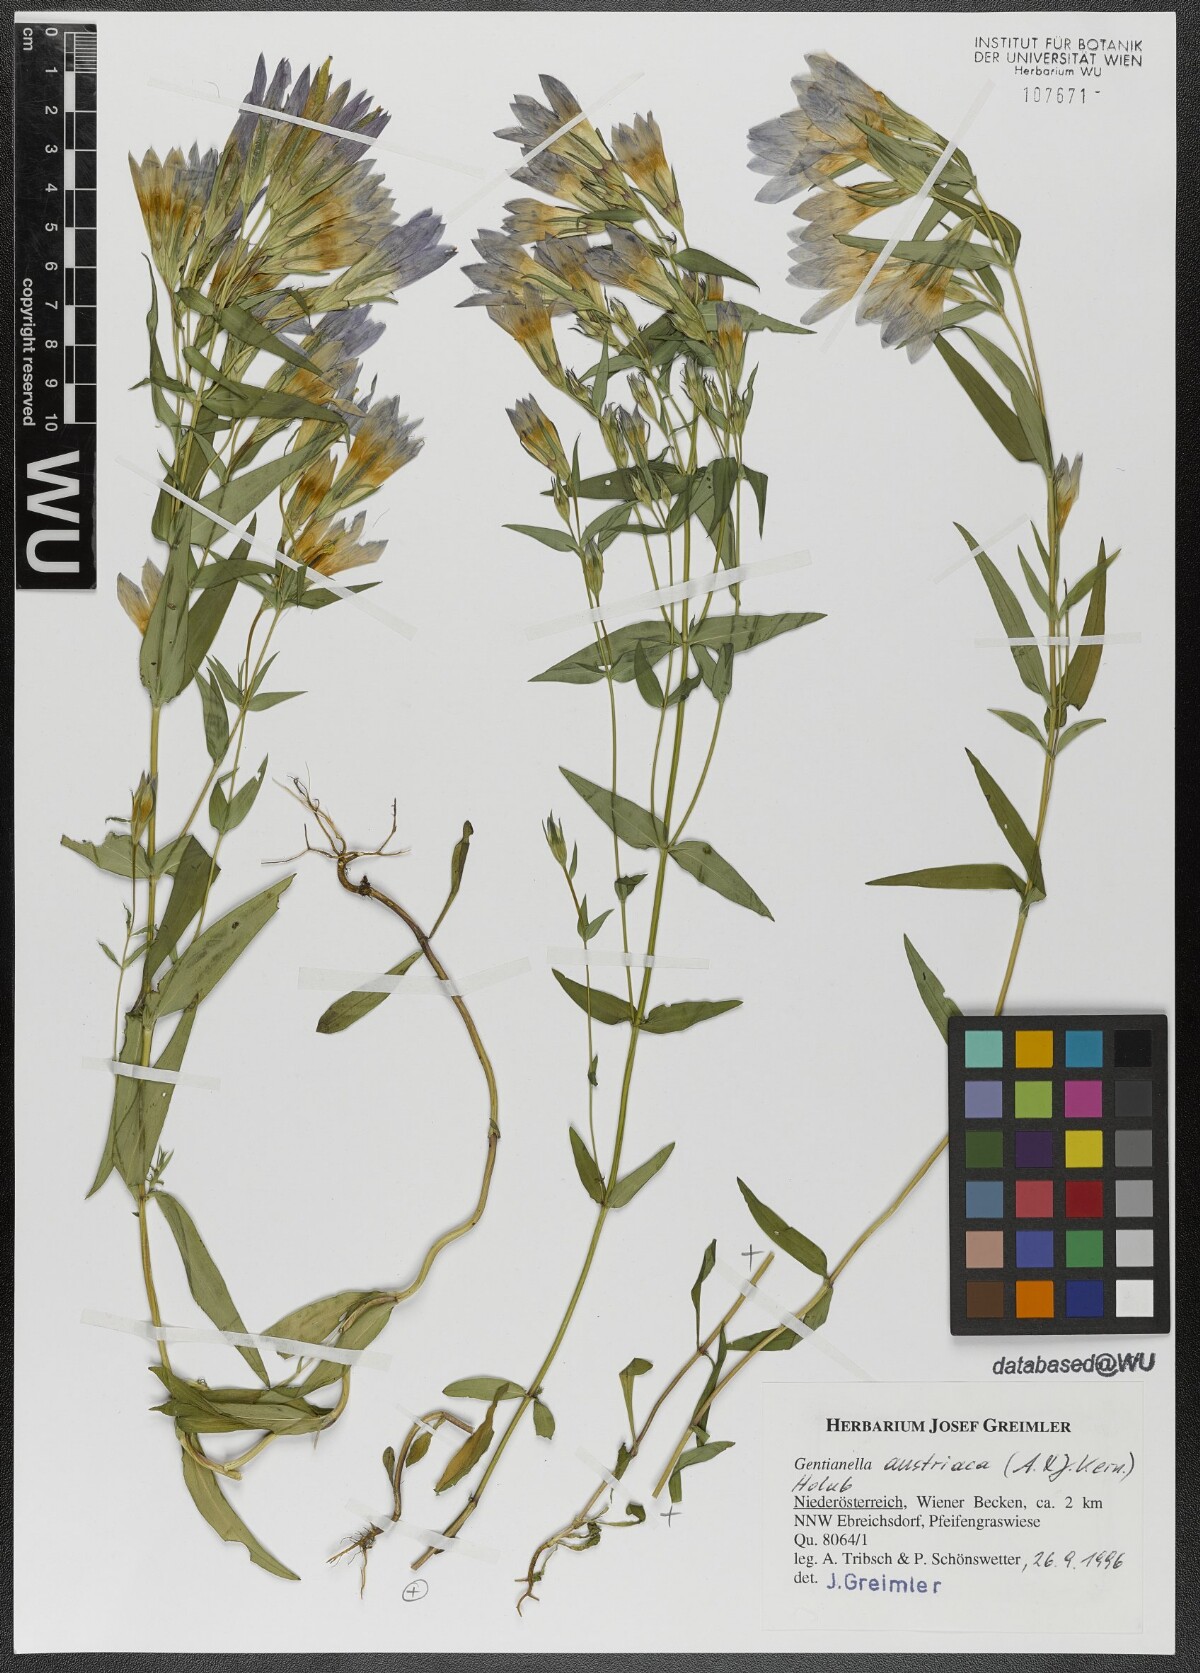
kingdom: Plantae
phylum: Tracheophyta
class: Magnoliopsida
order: Gentianales
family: Gentianaceae
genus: Gentianella
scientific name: Gentianella austriaca
